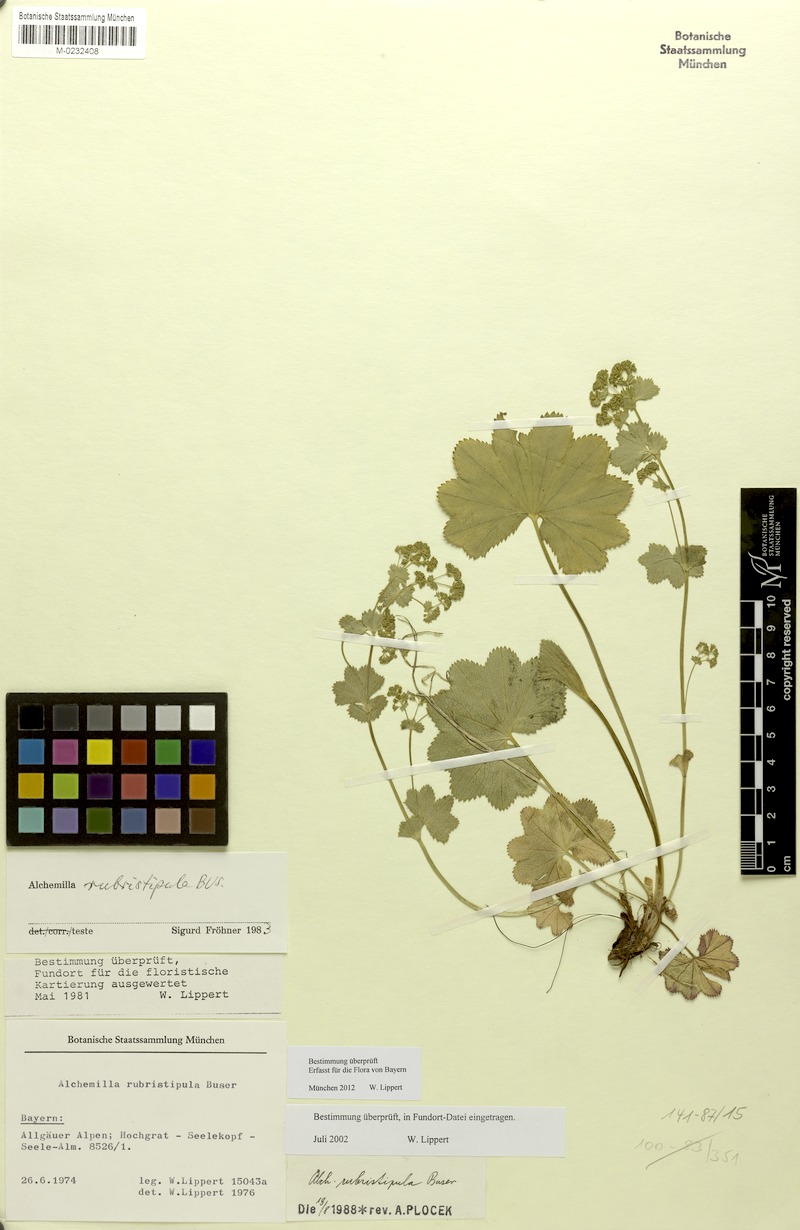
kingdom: Plantae
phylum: Tracheophyta
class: Magnoliopsida
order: Rosales
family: Rosaceae
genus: Alchemilla
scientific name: Alchemilla rubristipula
